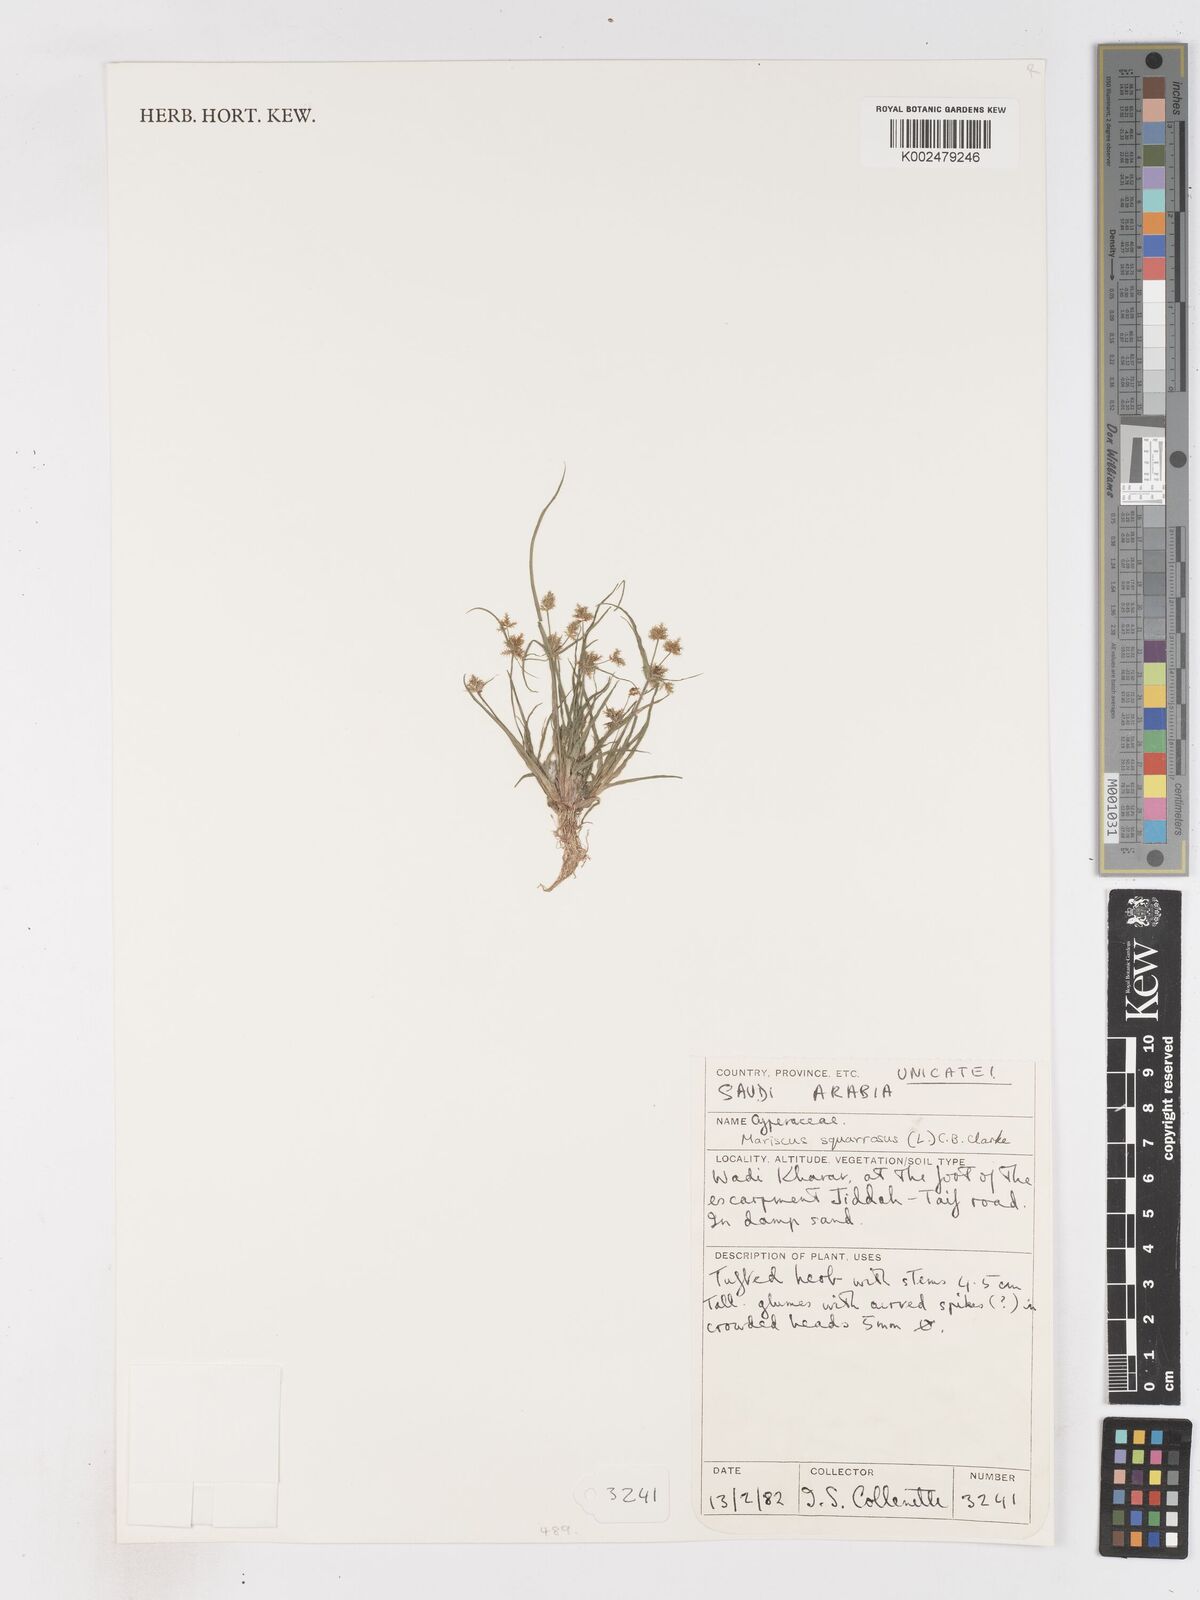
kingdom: Plantae
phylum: Tracheophyta
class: Liliopsida
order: Poales
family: Cyperaceae
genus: Cyperus
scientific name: Cyperus squarrosus
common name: Awned cyperus
